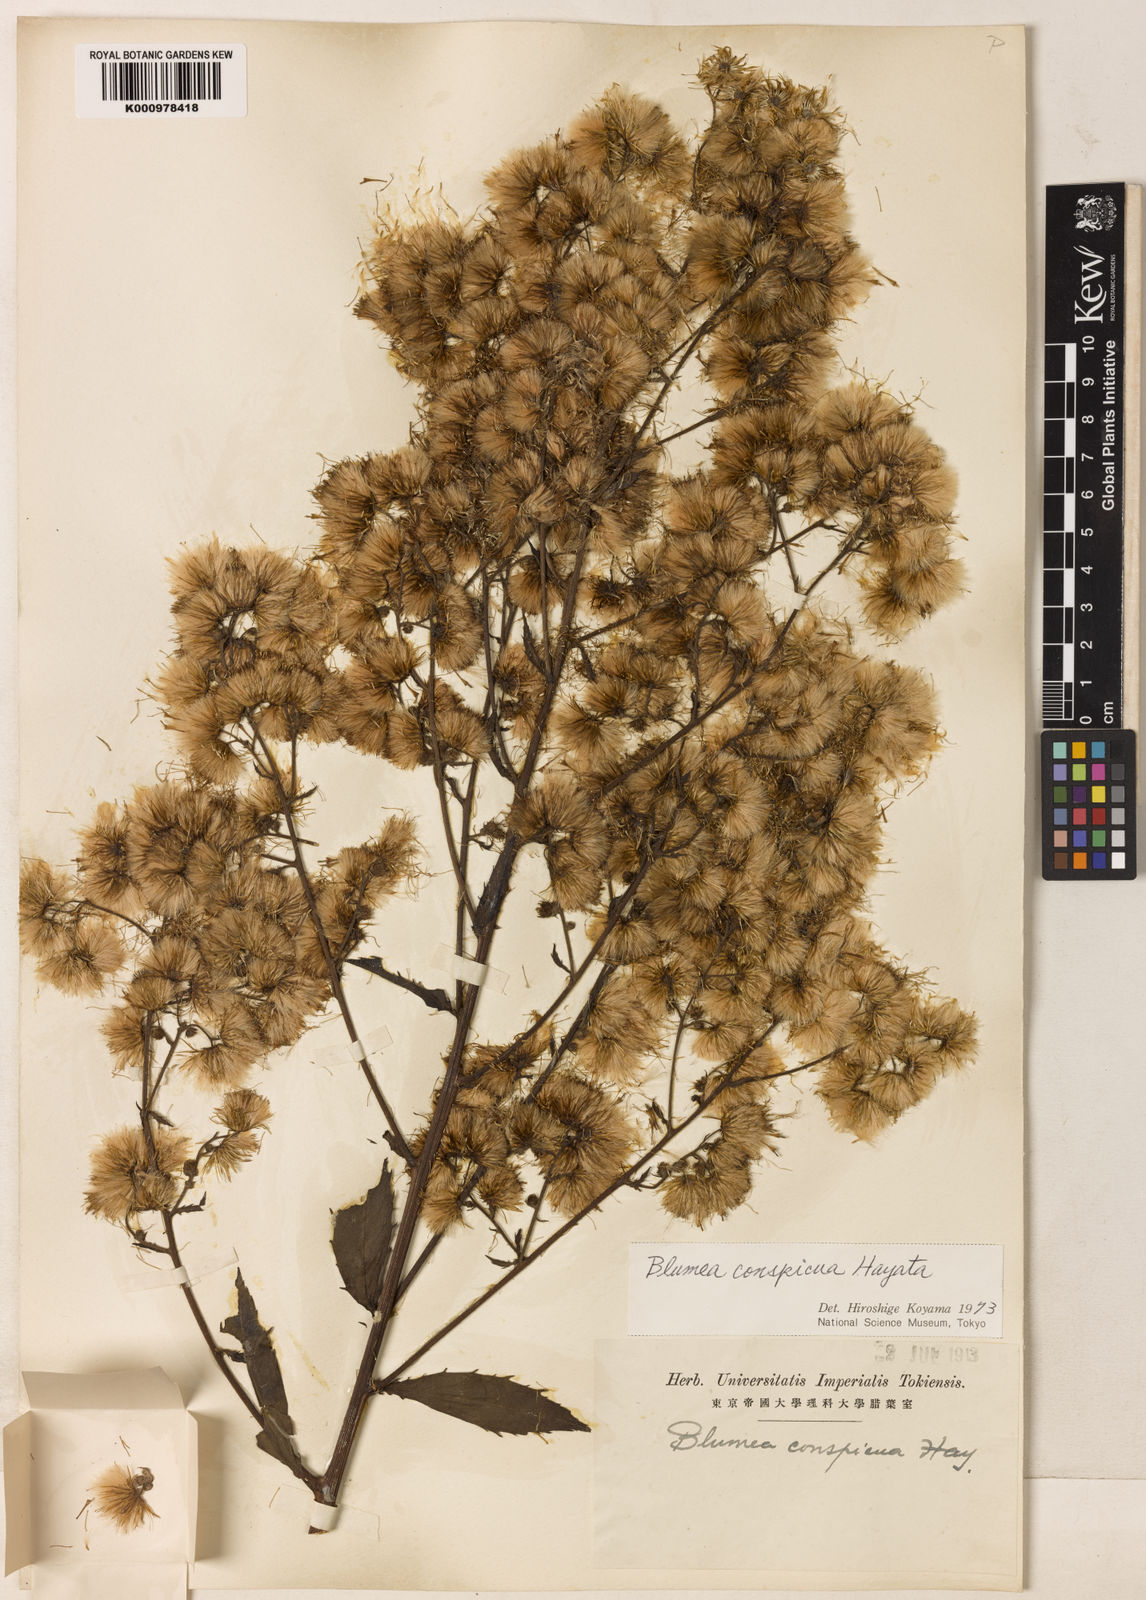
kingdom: Plantae
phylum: Tracheophyta
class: Magnoliopsida
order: Asterales
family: Asteraceae
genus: Blumea
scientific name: Blumea conspicua
